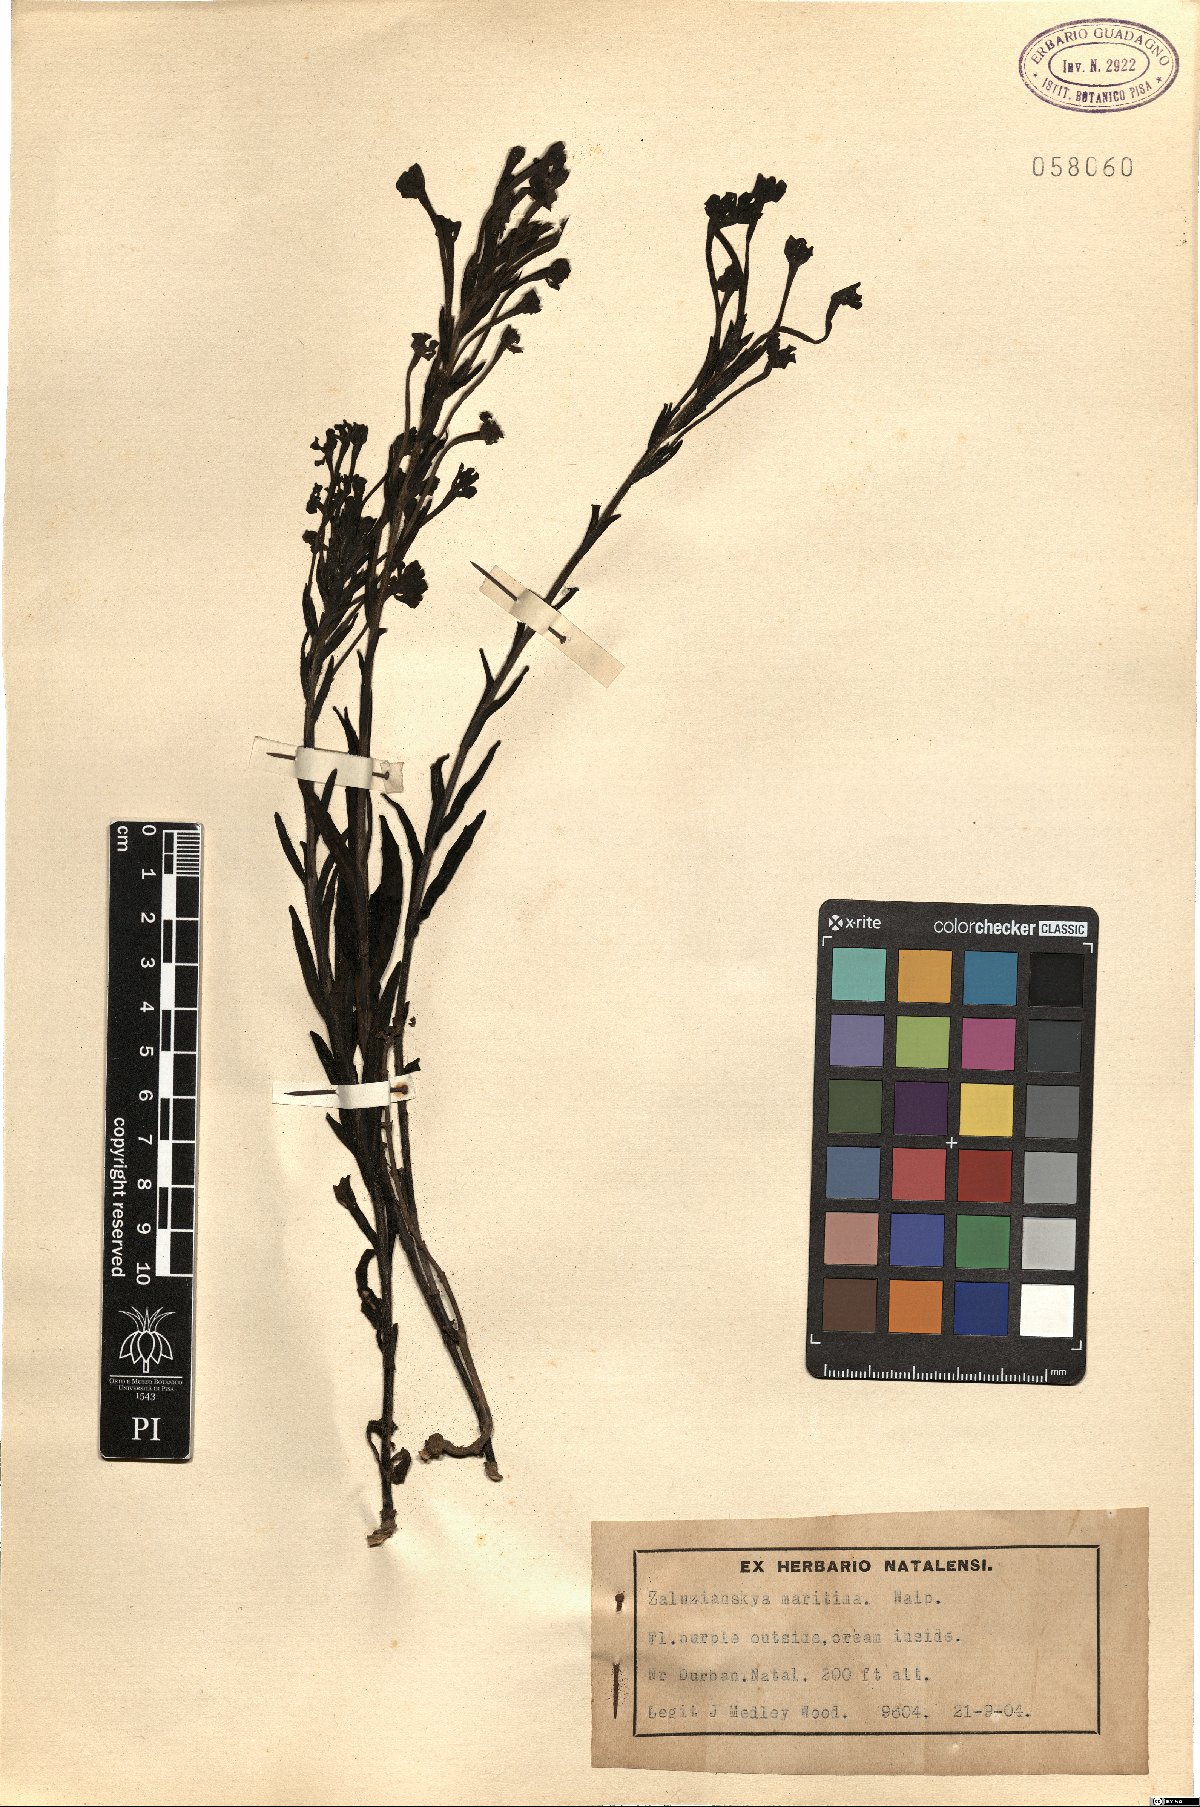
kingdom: Plantae
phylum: Tracheophyta
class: Magnoliopsida
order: Lamiales
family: Scrophulariaceae
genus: Zaluzianskya
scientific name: Zaluzianskya maritima
